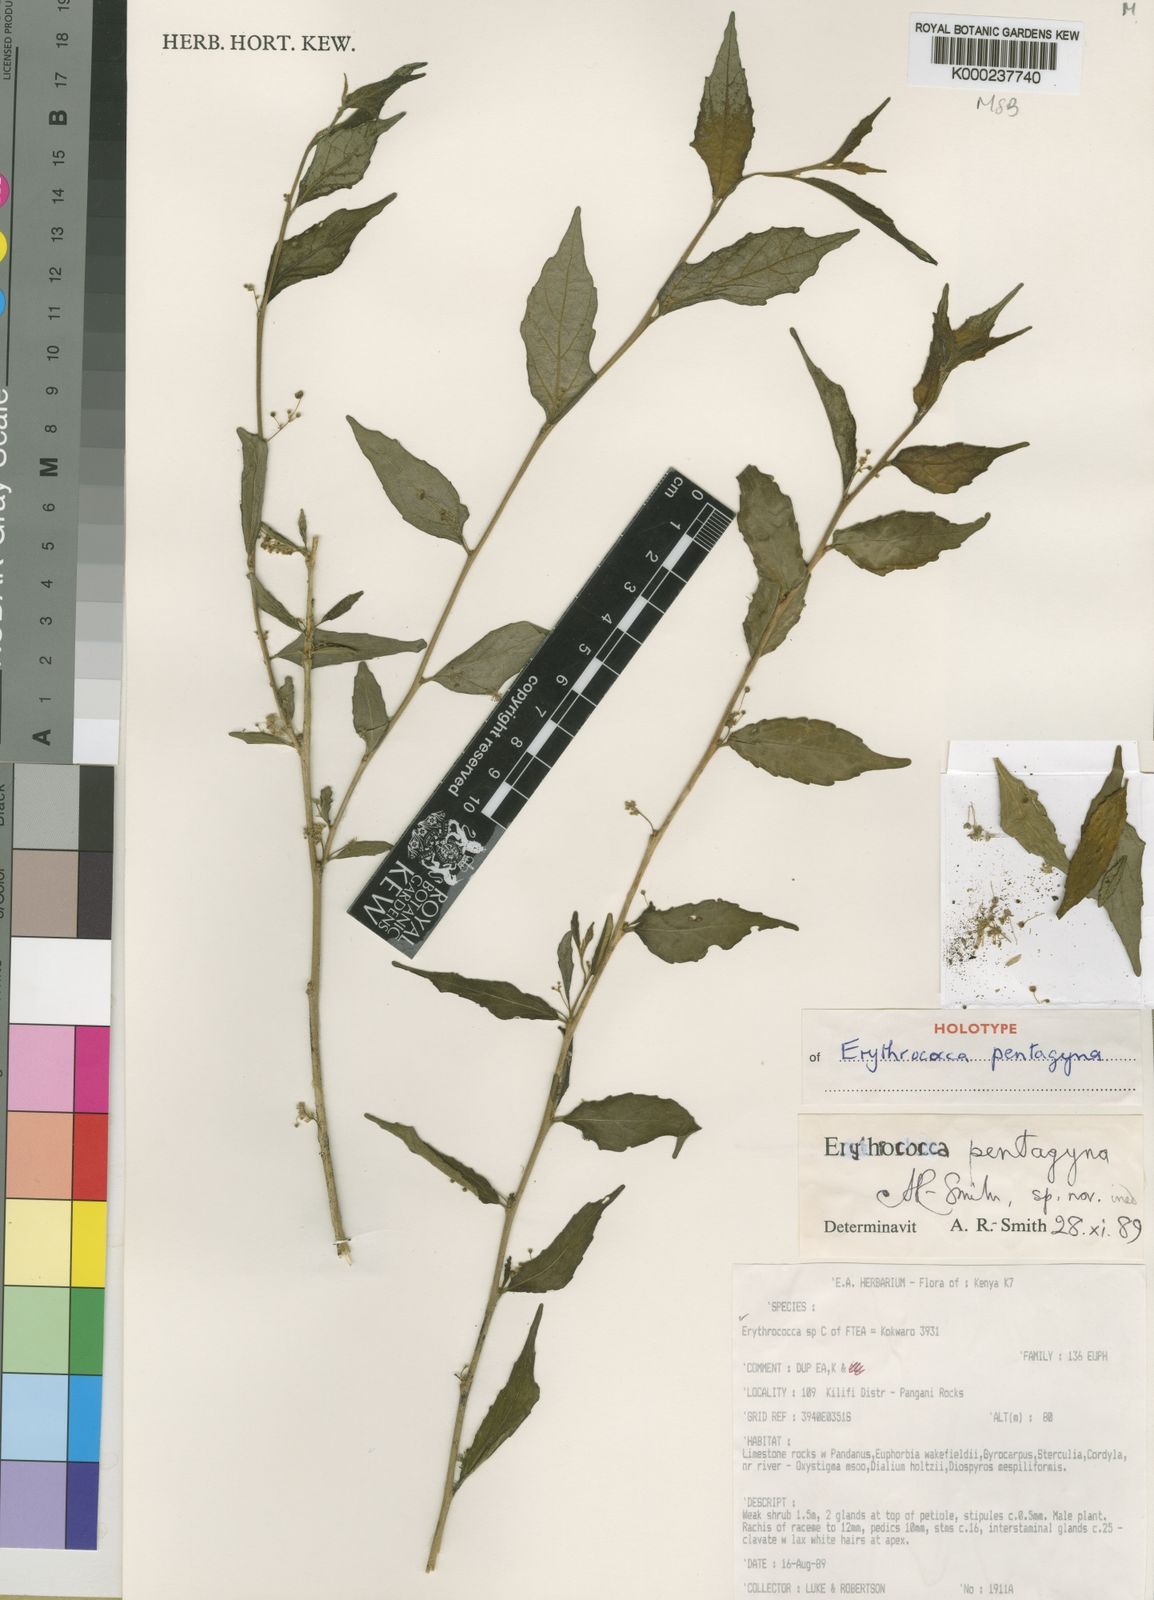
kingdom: Plantae
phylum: Tracheophyta
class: Magnoliopsida
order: Malpighiales
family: Euphorbiaceae
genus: Erythrococca
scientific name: Erythrococca
